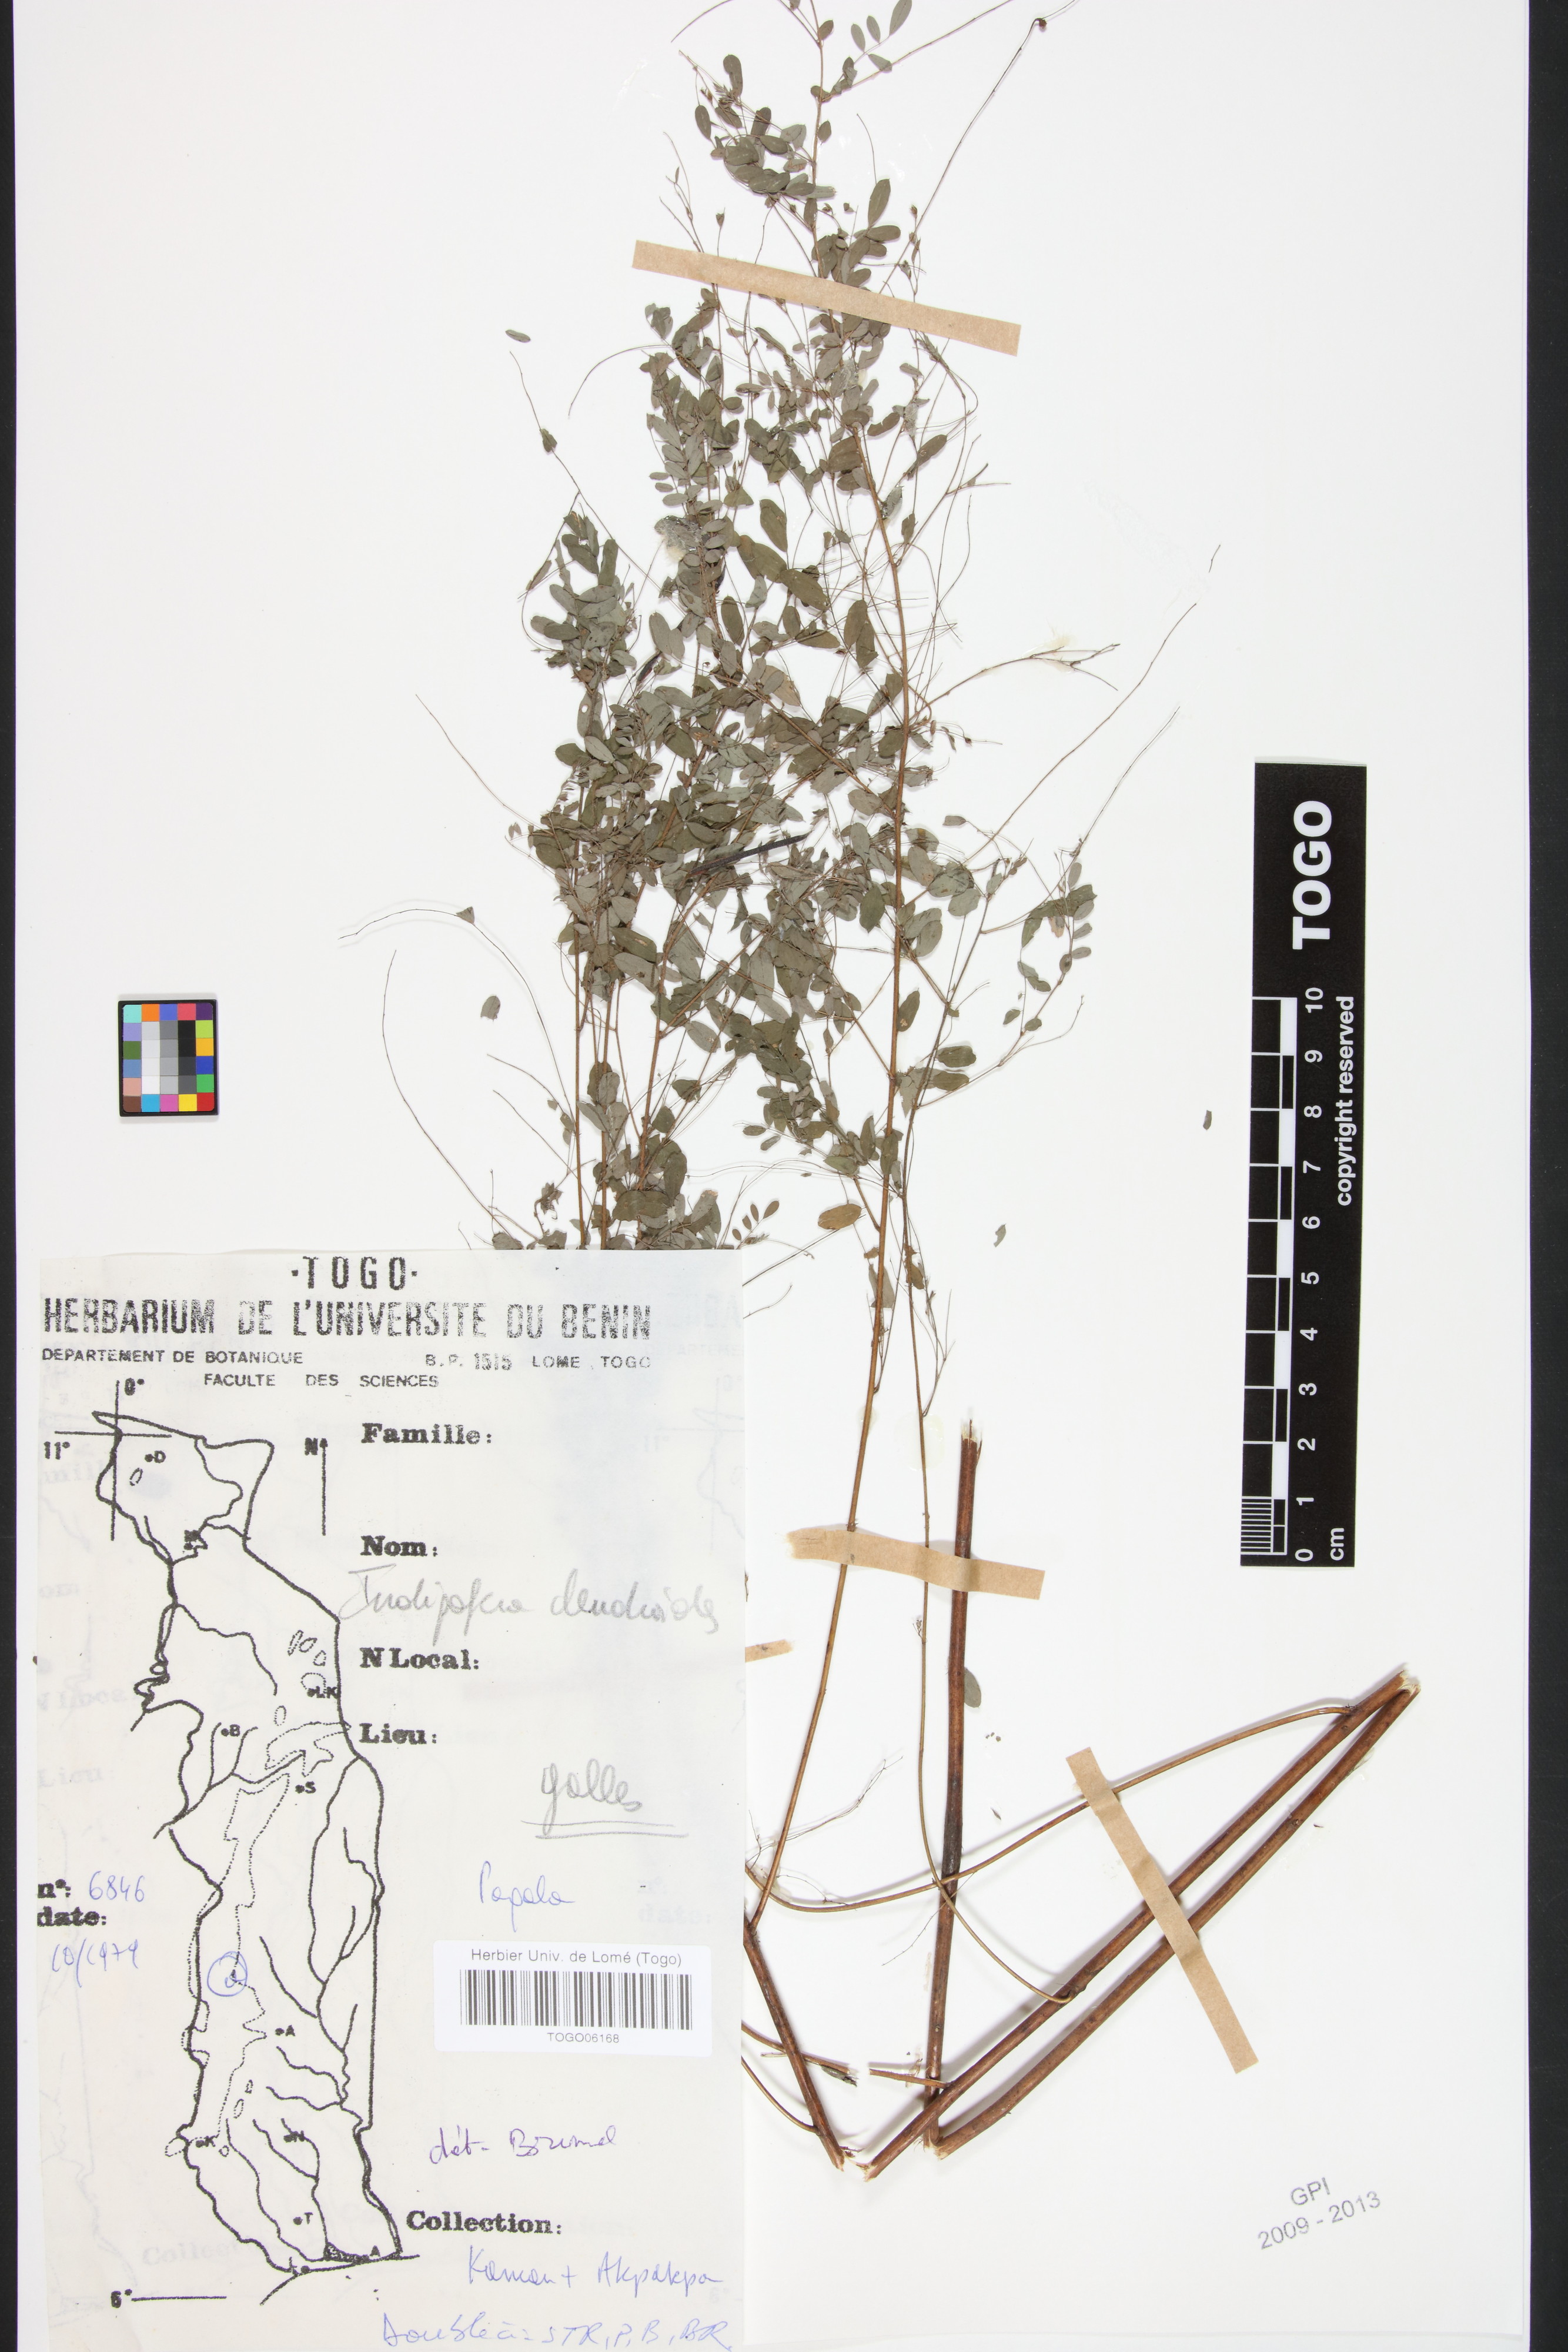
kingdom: Plantae
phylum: Tracheophyta
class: Magnoliopsida
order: Fabales
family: Fabaceae
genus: Indigofera
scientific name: Indigofera dendroides
